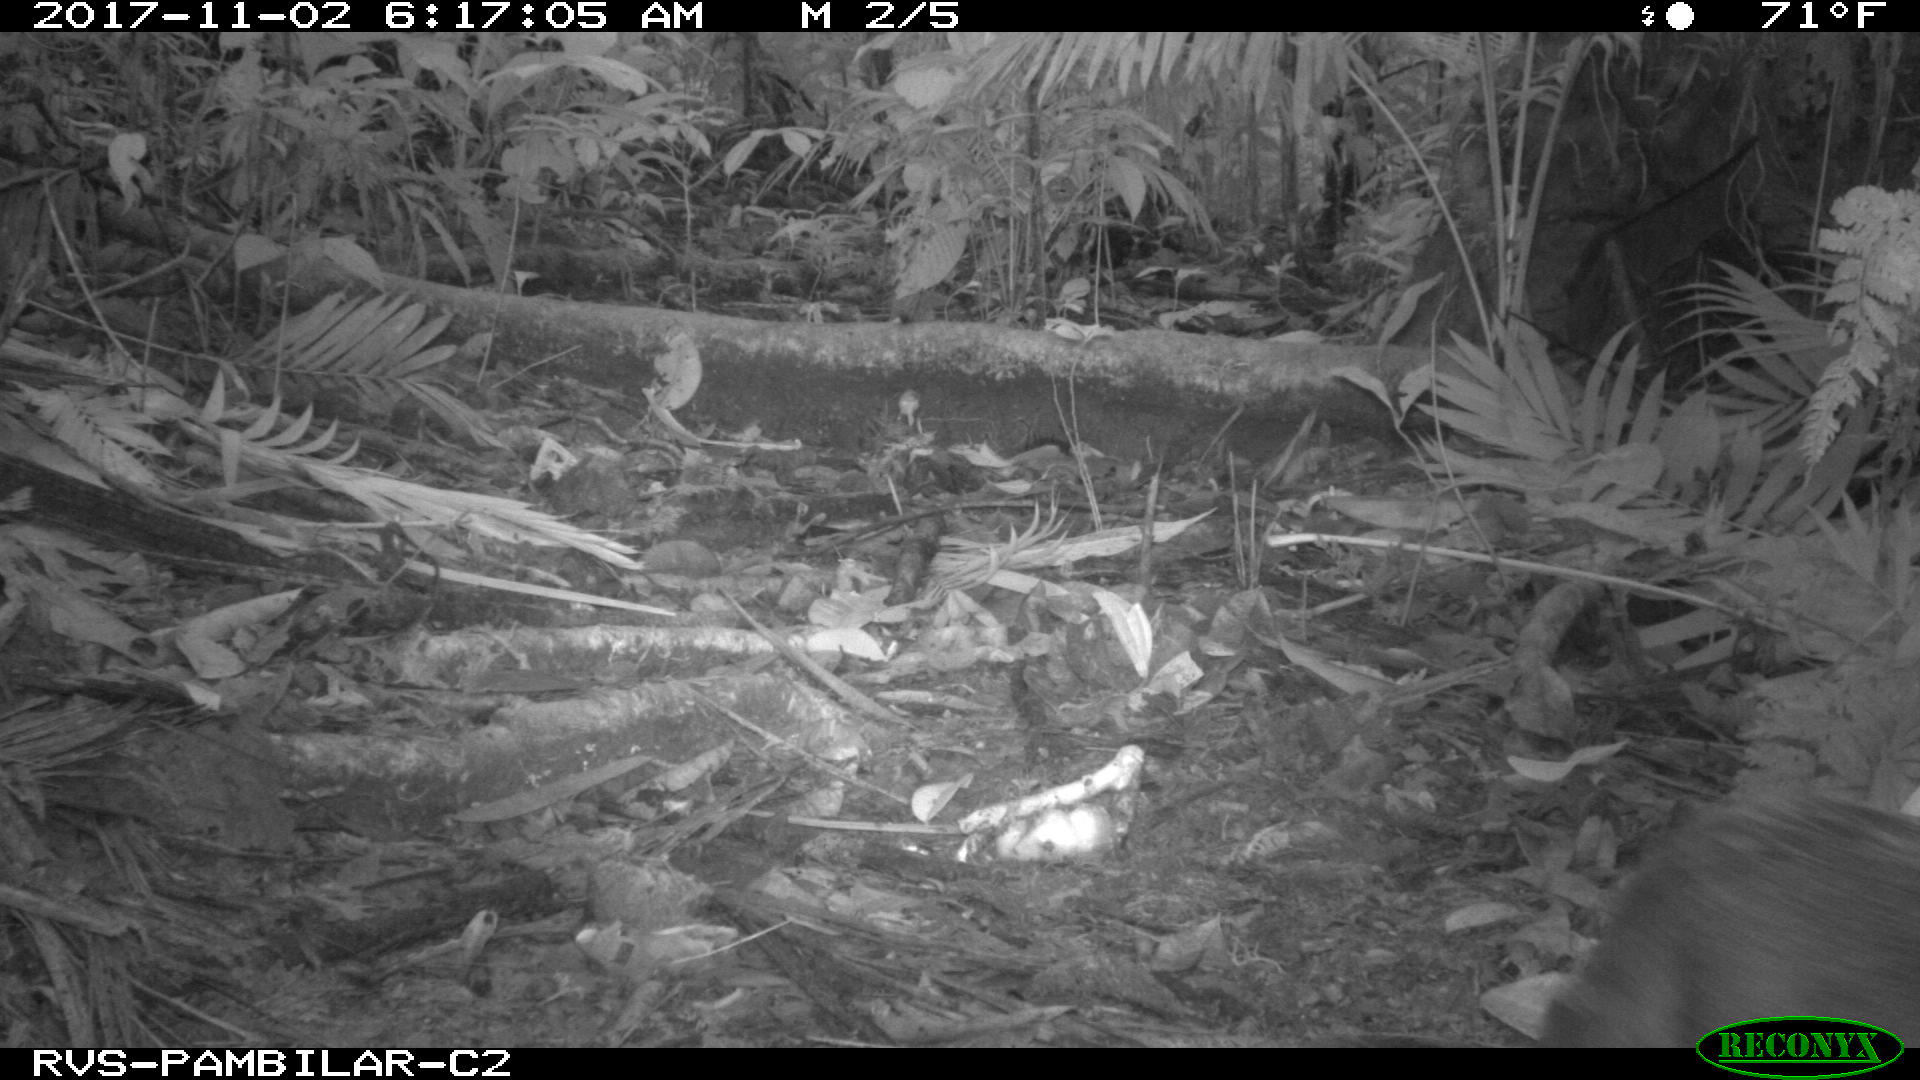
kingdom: Animalia
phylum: Chordata
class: Mammalia
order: Rodentia
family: Dasyproctidae
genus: Dasyprocta
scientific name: Dasyprocta punctata
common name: Central american agouti
